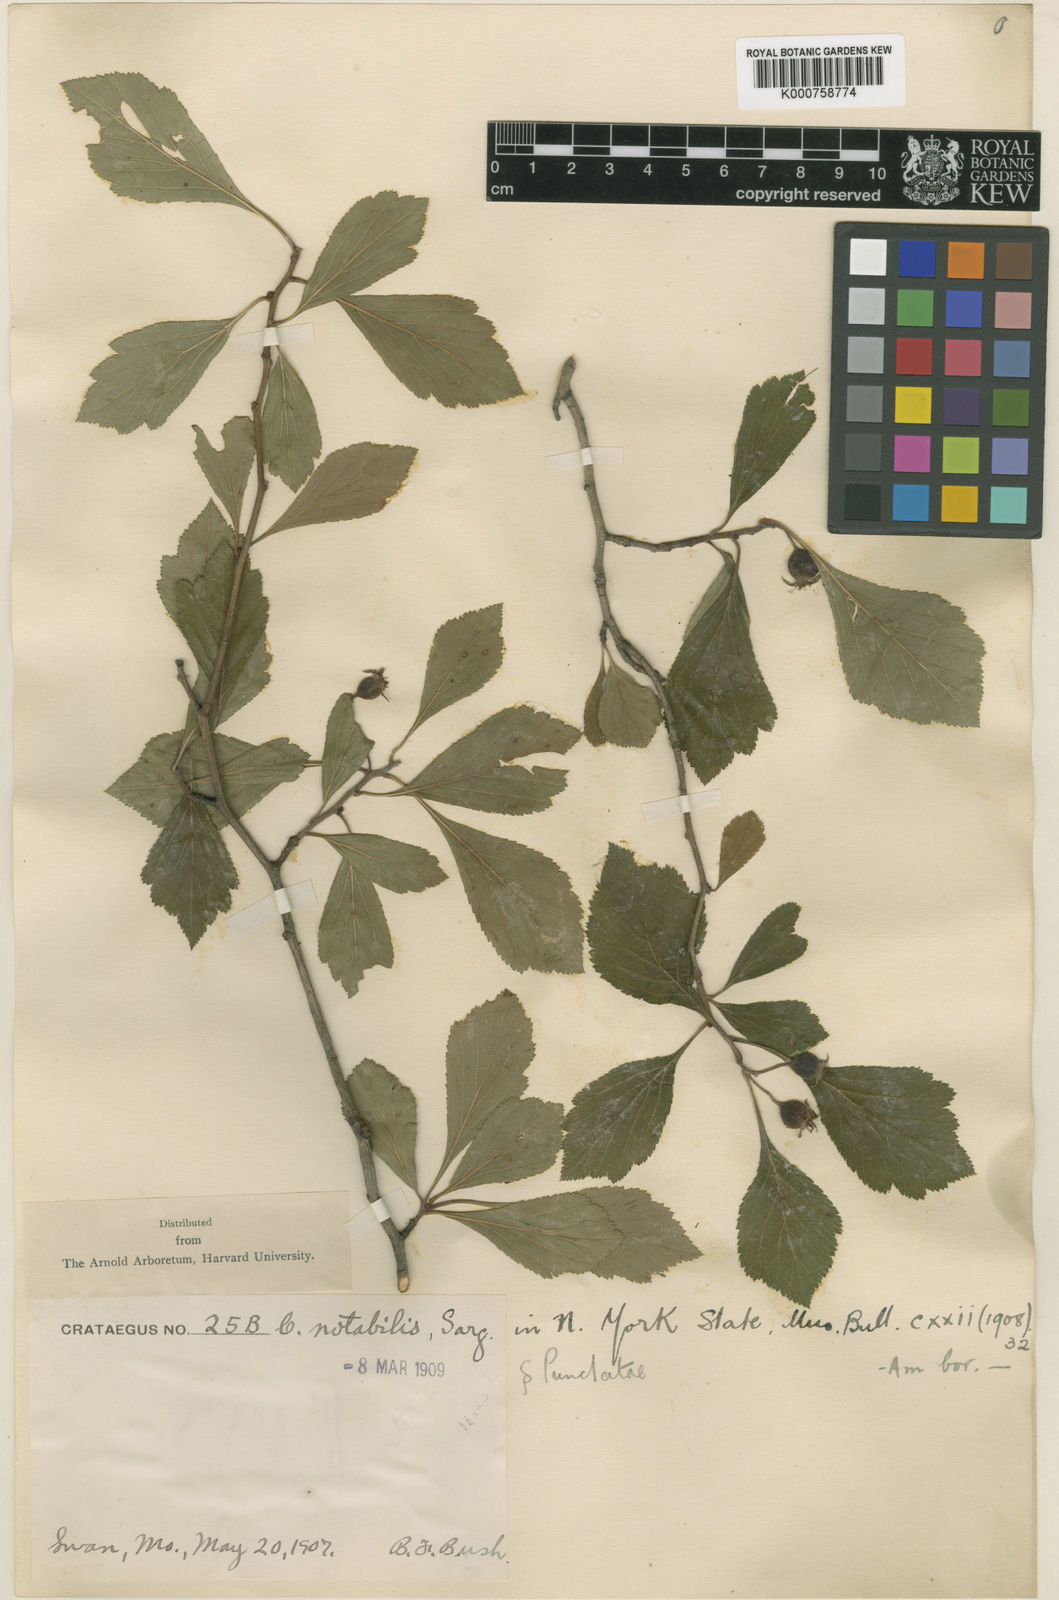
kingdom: Plantae
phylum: Tracheophyta
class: Magnoliopsida
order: Rosales
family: Rosaceae
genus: Crataegus
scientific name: Crataegus
